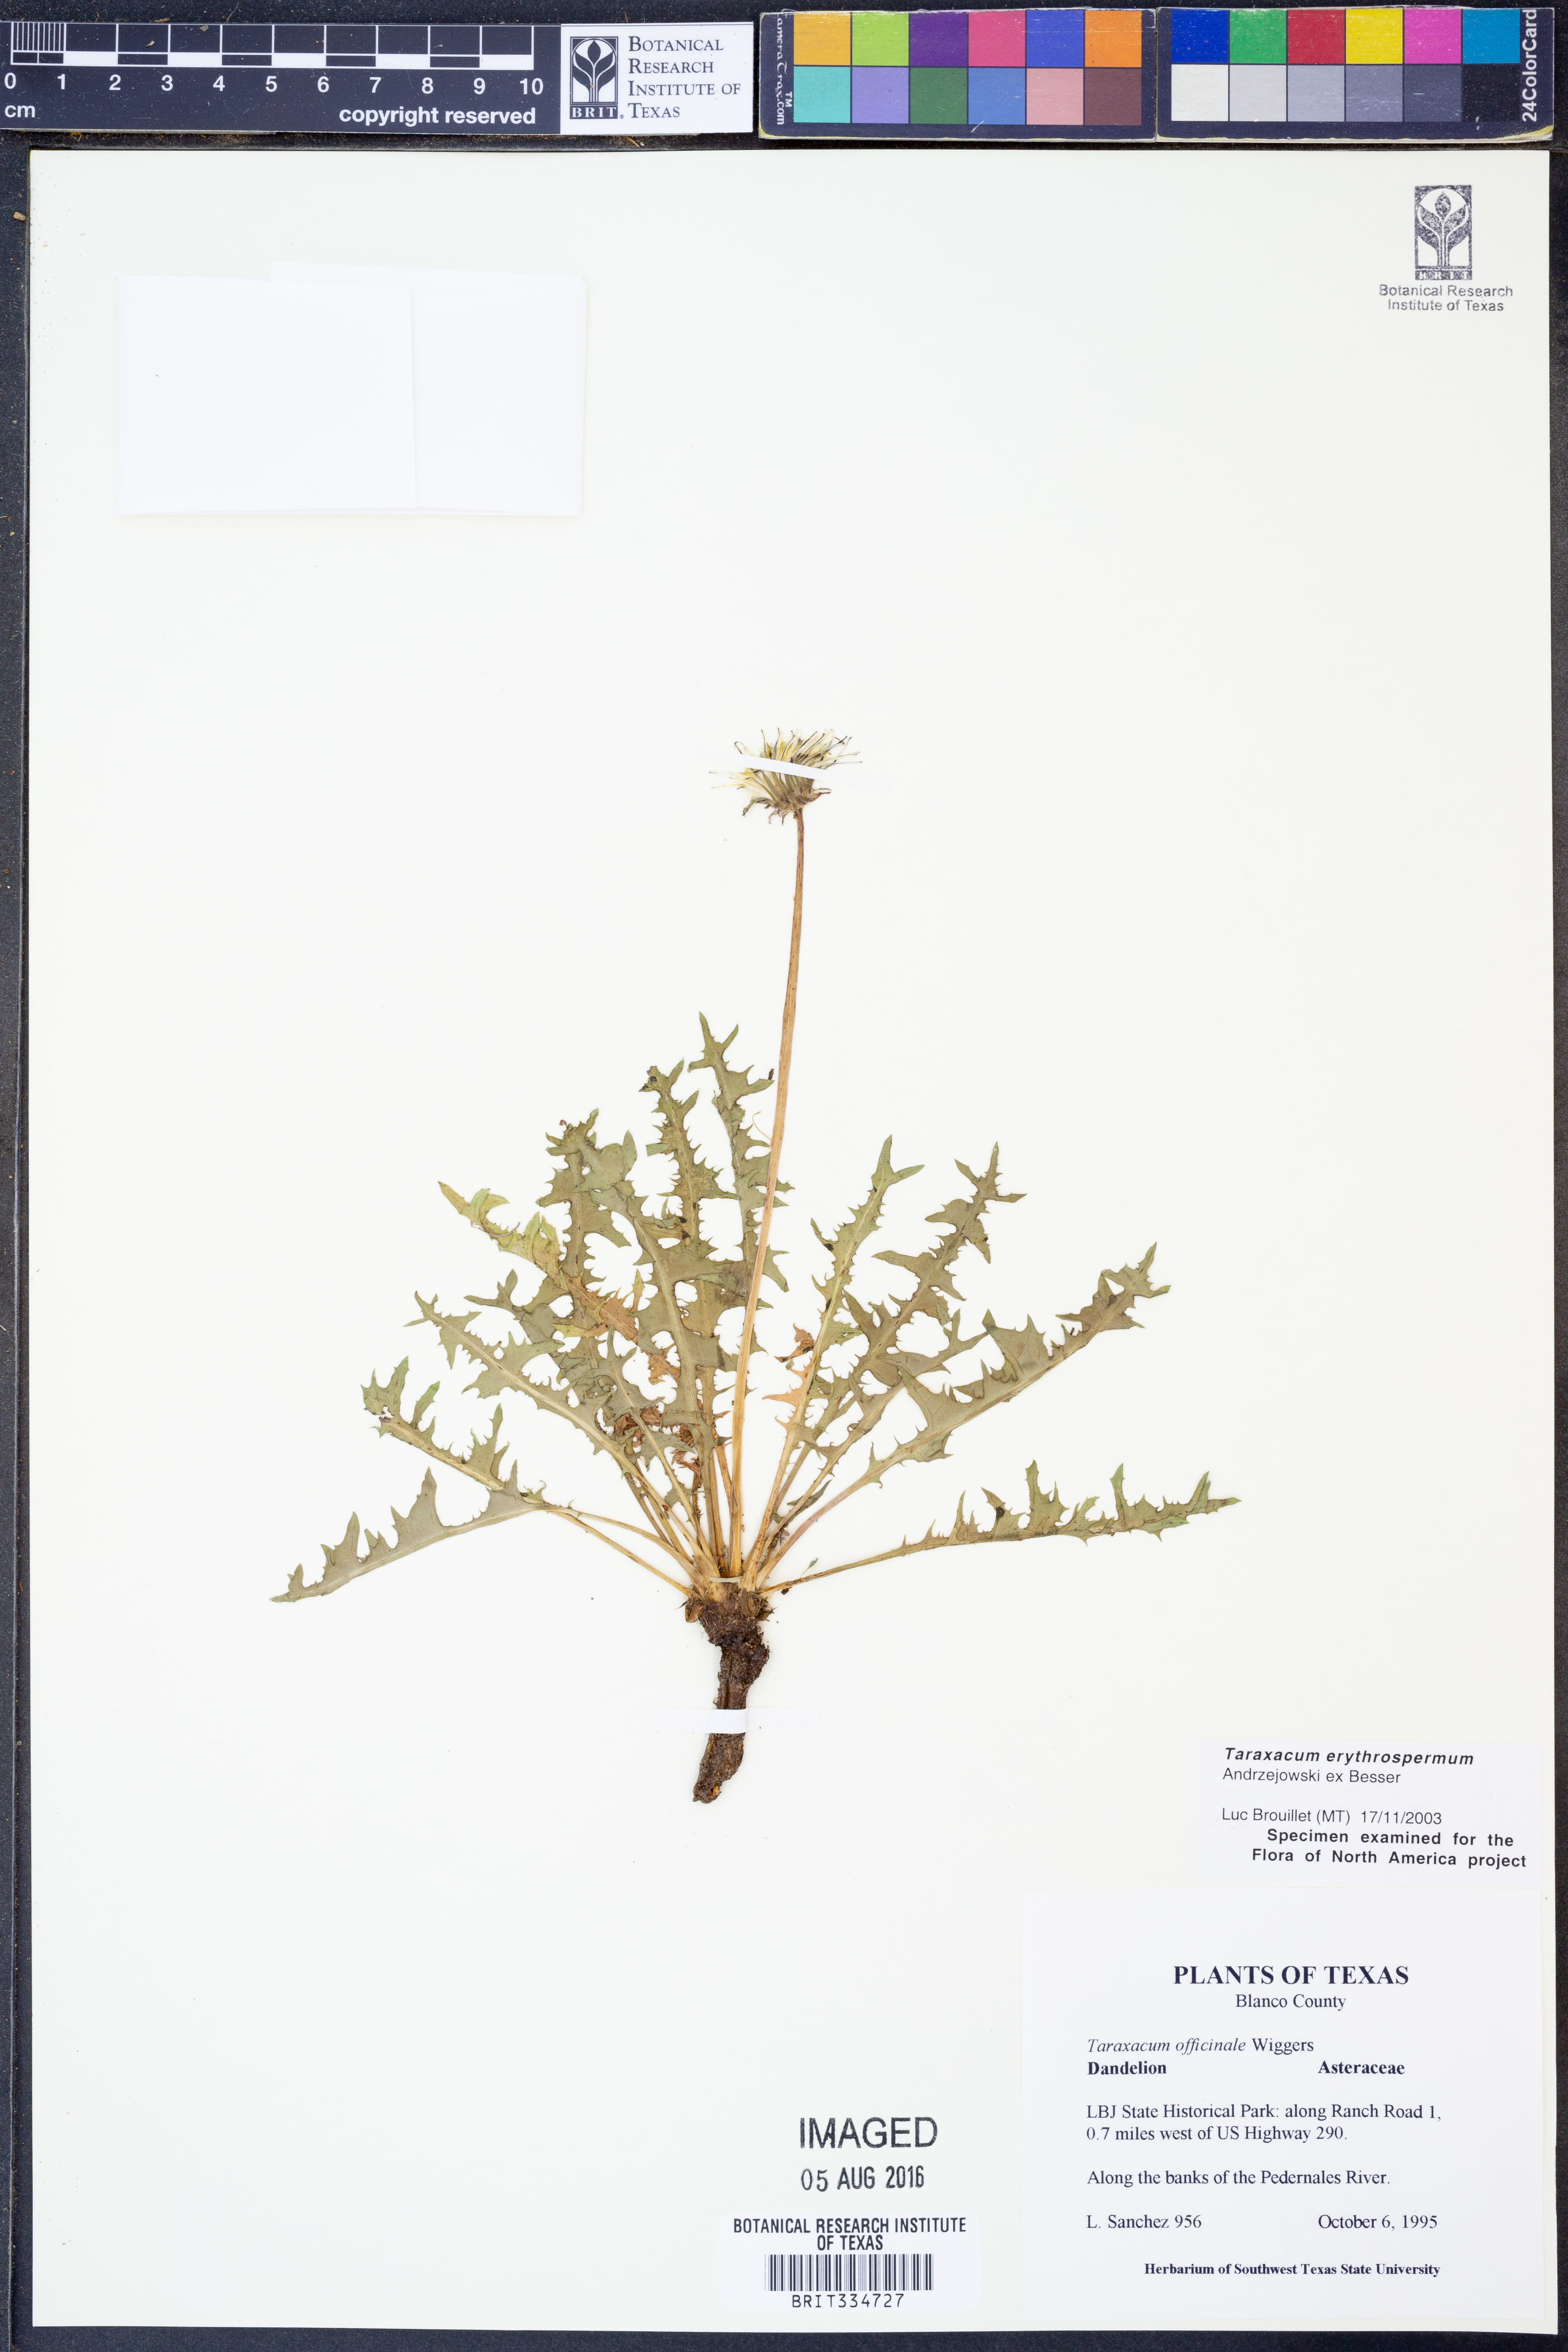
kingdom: Plantae
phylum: Tracheophyta
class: Magnoliopsida
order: Asterales
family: Asteraceae
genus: Taraxacum
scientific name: Taraxacum erythrospermum
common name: Rock dandelion
